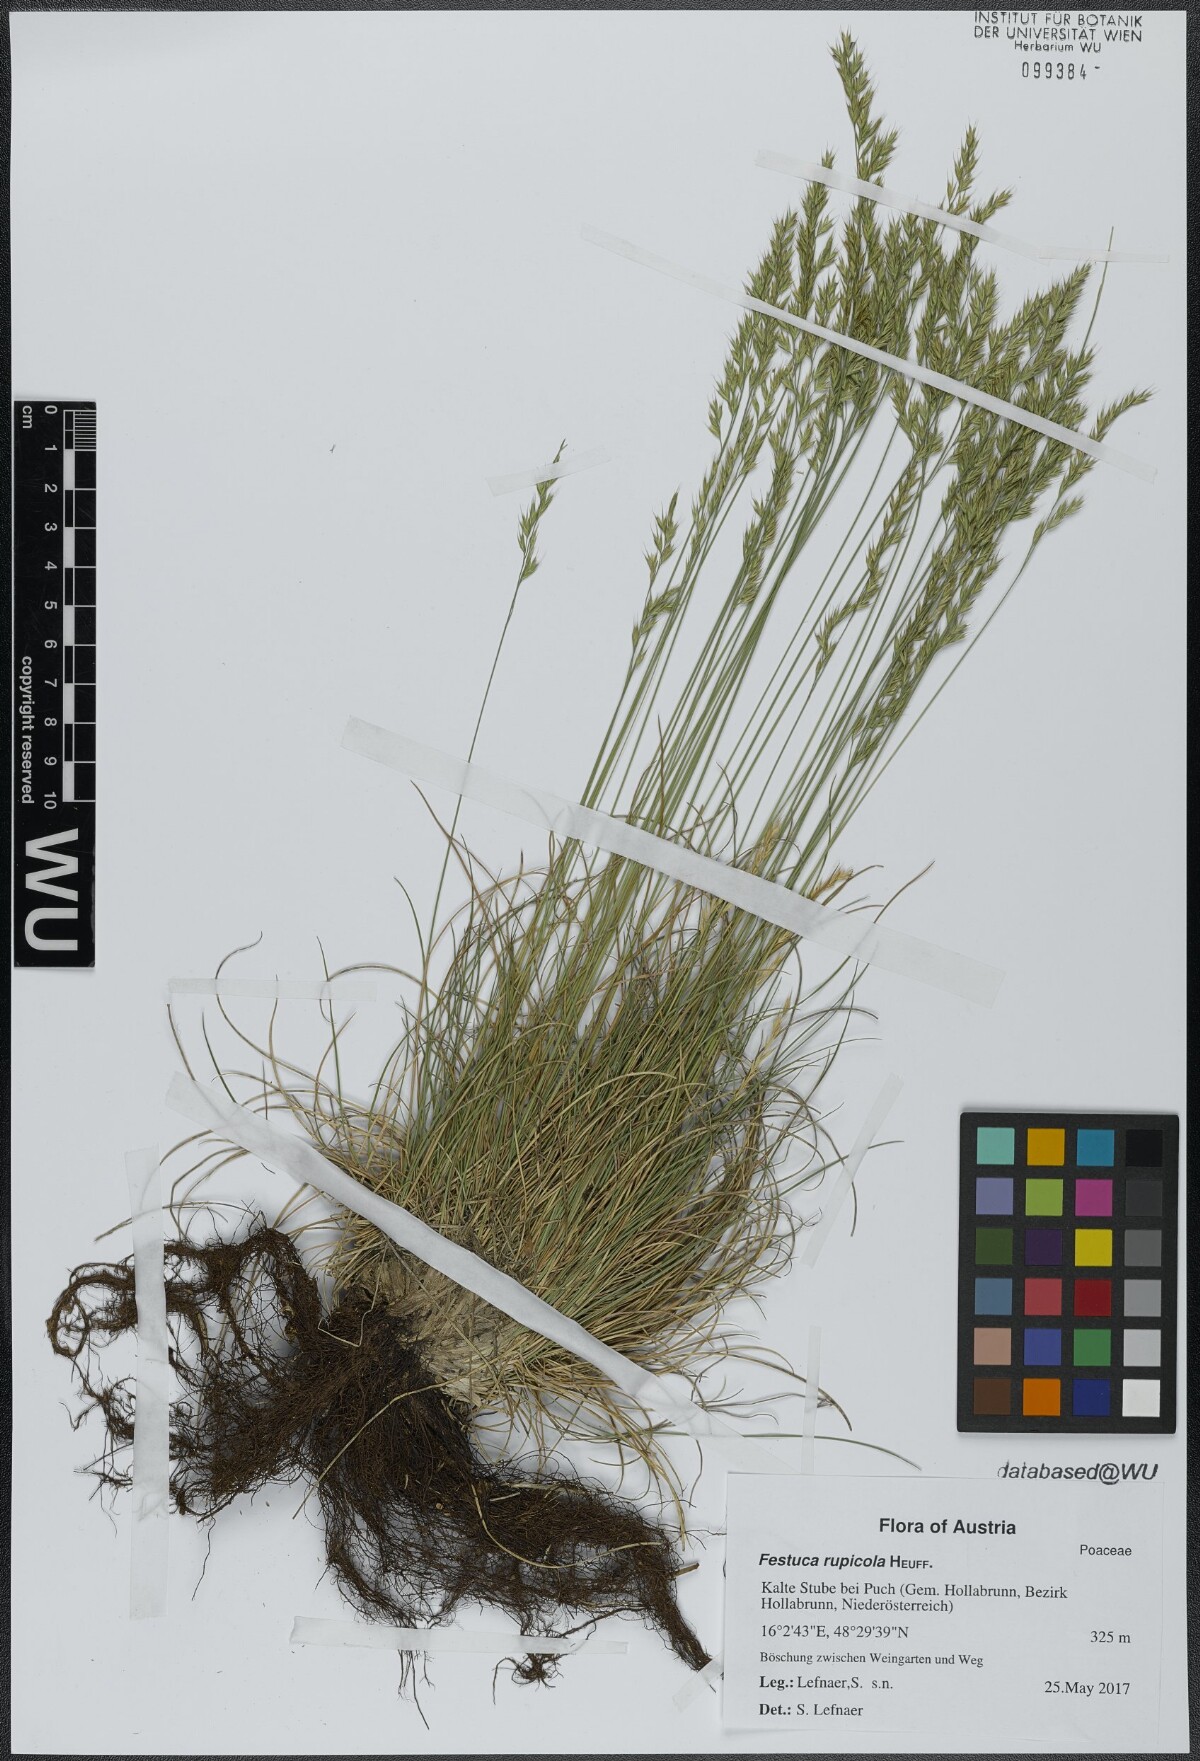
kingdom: Plantae
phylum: Tracheophyta
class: Liliopsida
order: Poales
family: Poaceae
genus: Festuca
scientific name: Festuca rupicola
